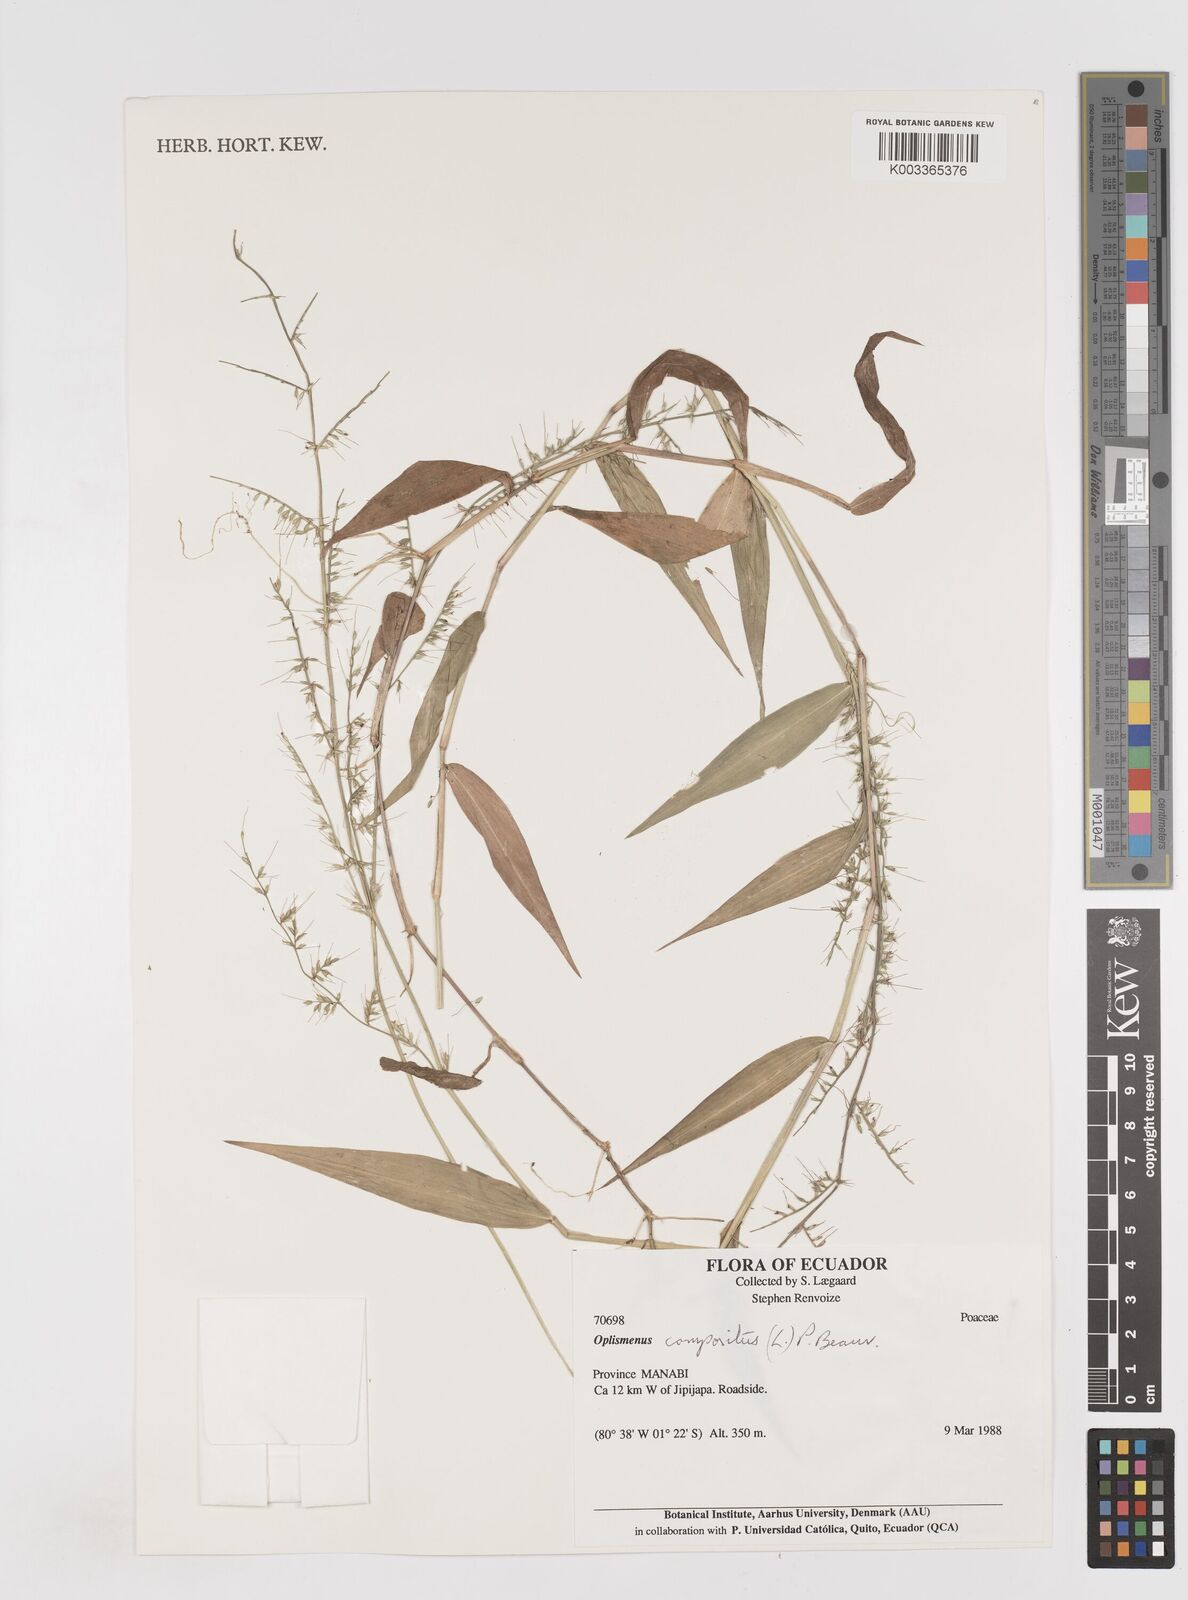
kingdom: Plantae
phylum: Tracheophyta
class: Liliopsida
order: Poales
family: Poaceae
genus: Oplismenus
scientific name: Oplismenus compositus
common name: Running mountain grass
